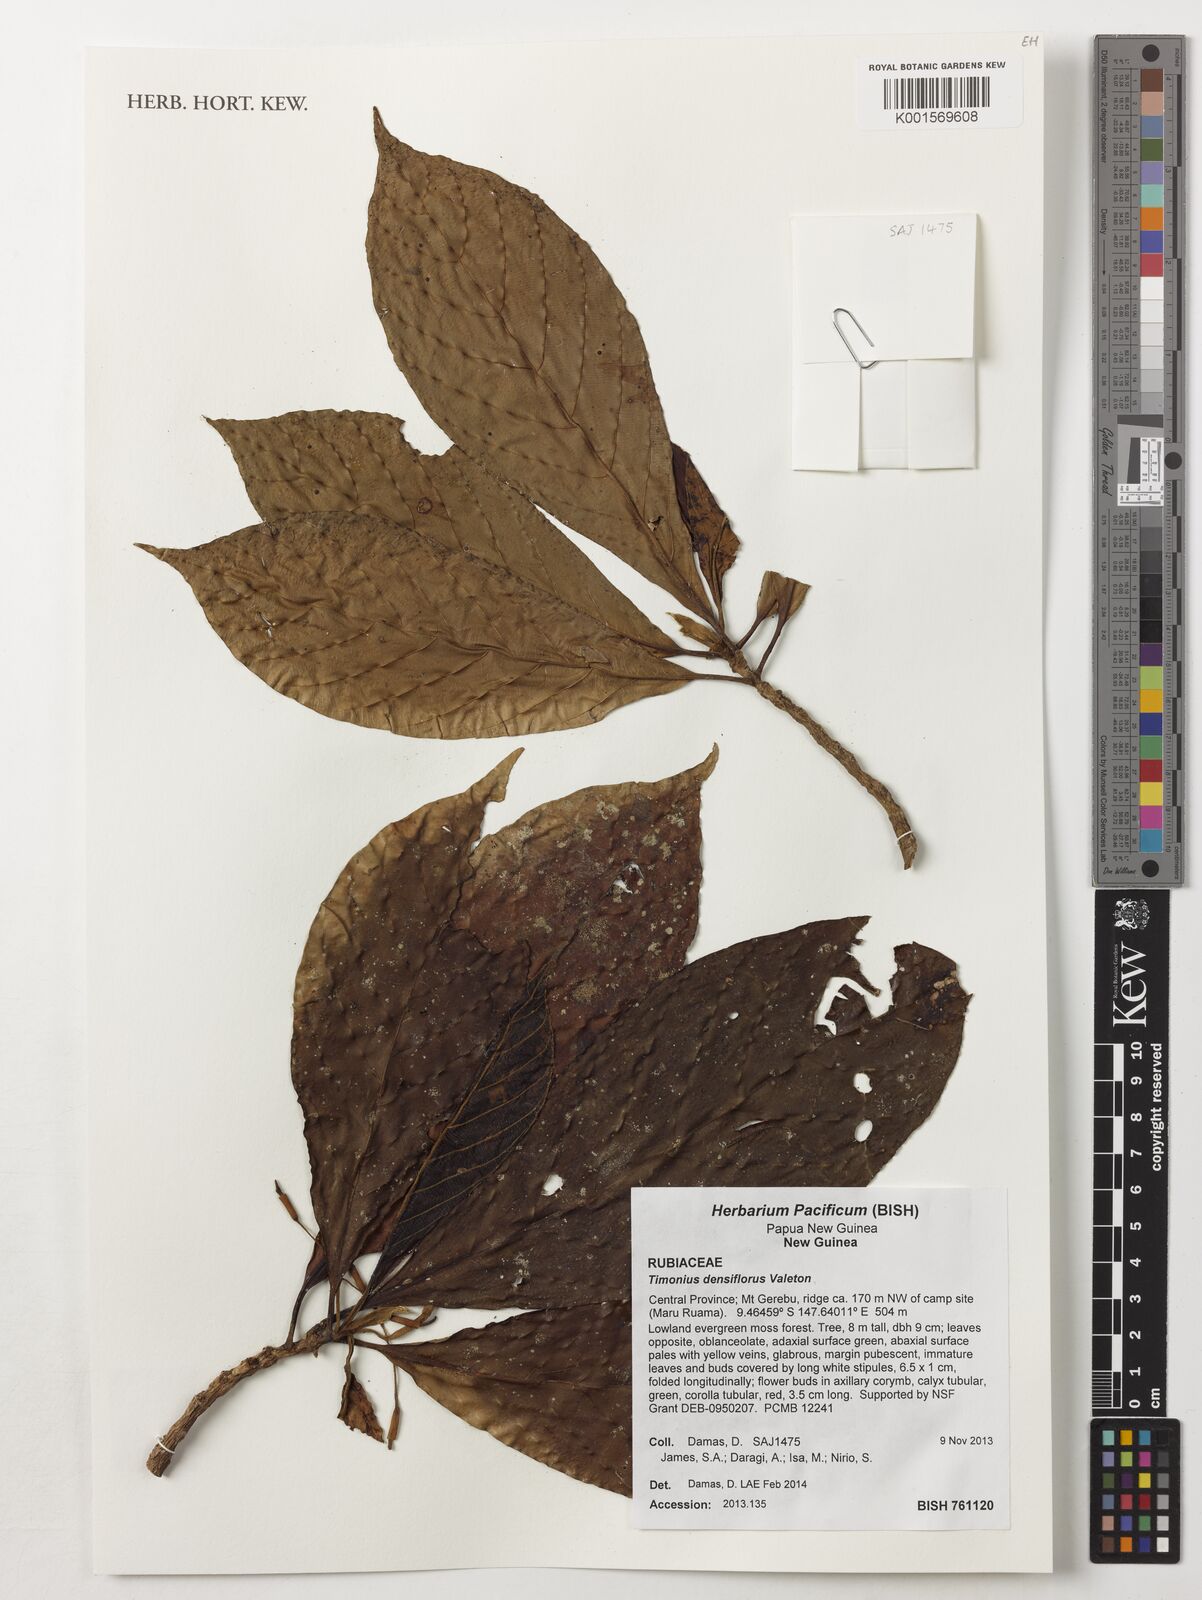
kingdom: Plantae
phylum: Tracheophyta
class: Magnoliopsida
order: Gentianales
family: Rubiaceae
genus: Timonius
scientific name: Timonius densiflorus
